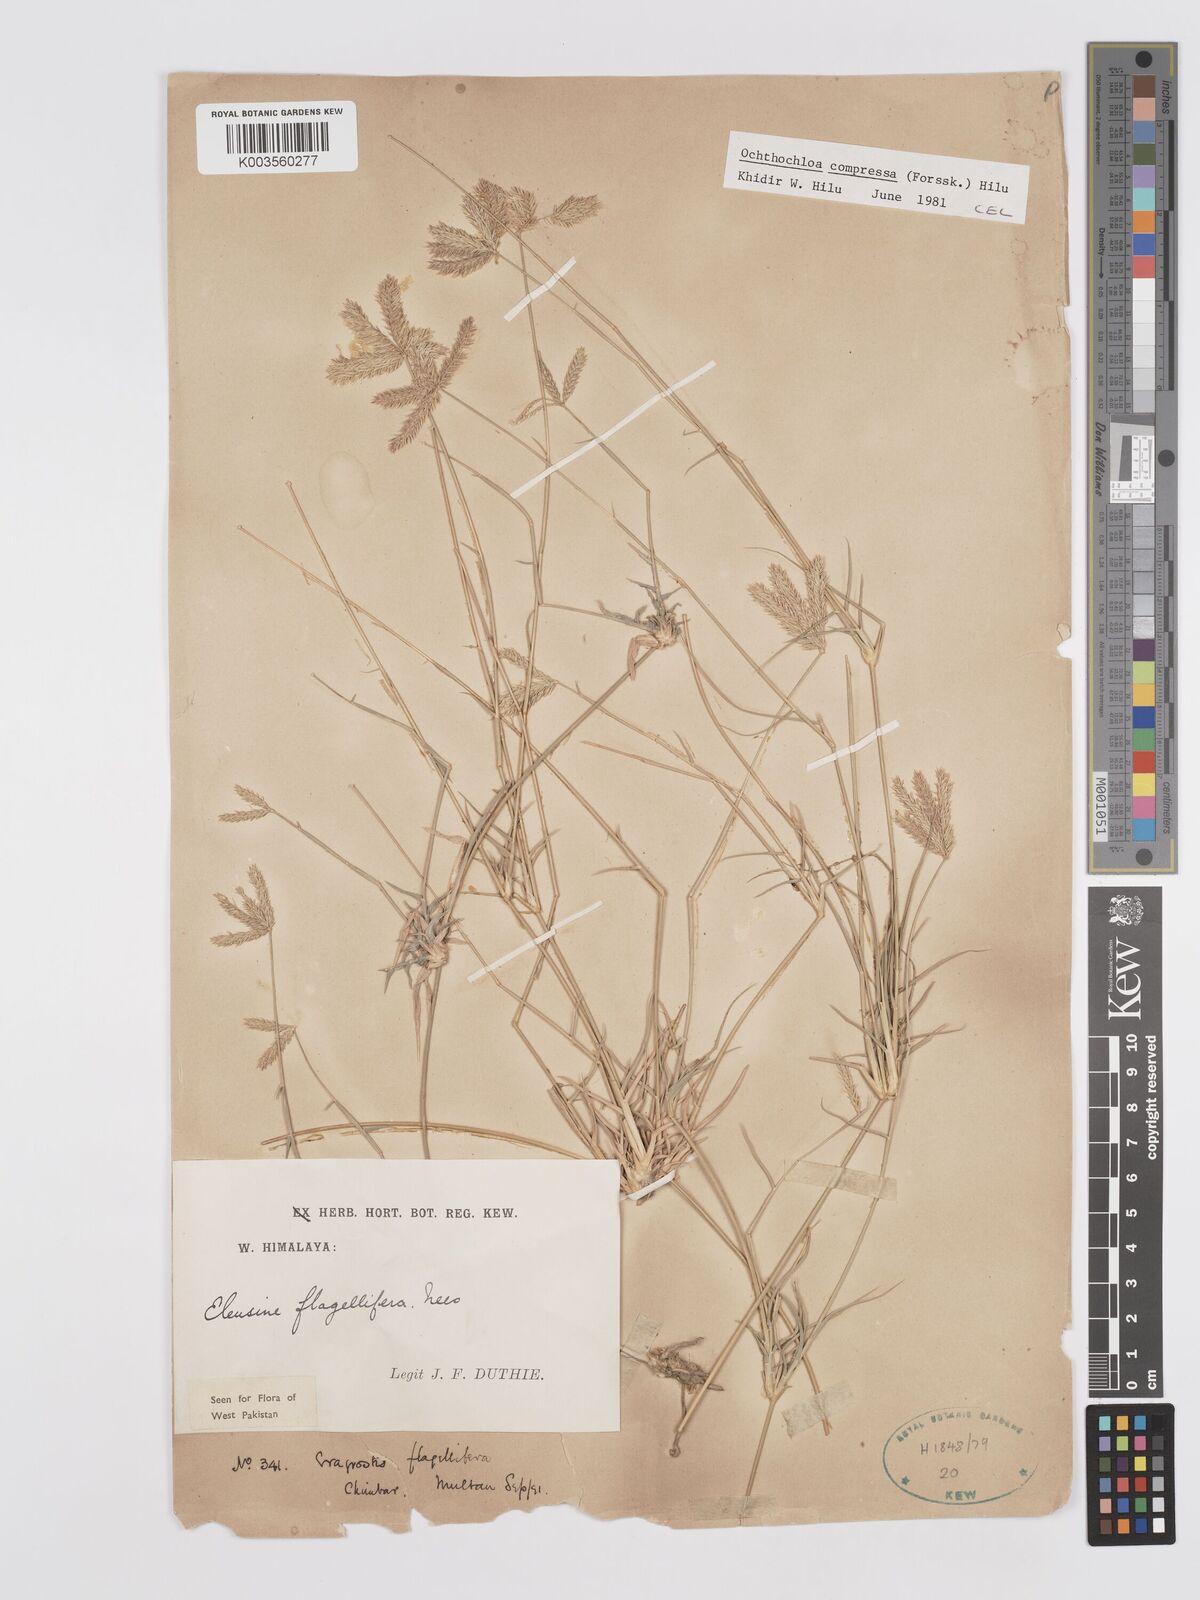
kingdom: Plantae
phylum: Tracheophyta
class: Liliopsida
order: Poales
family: Poaceae
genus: Chloris
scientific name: Chloris flagellifera
